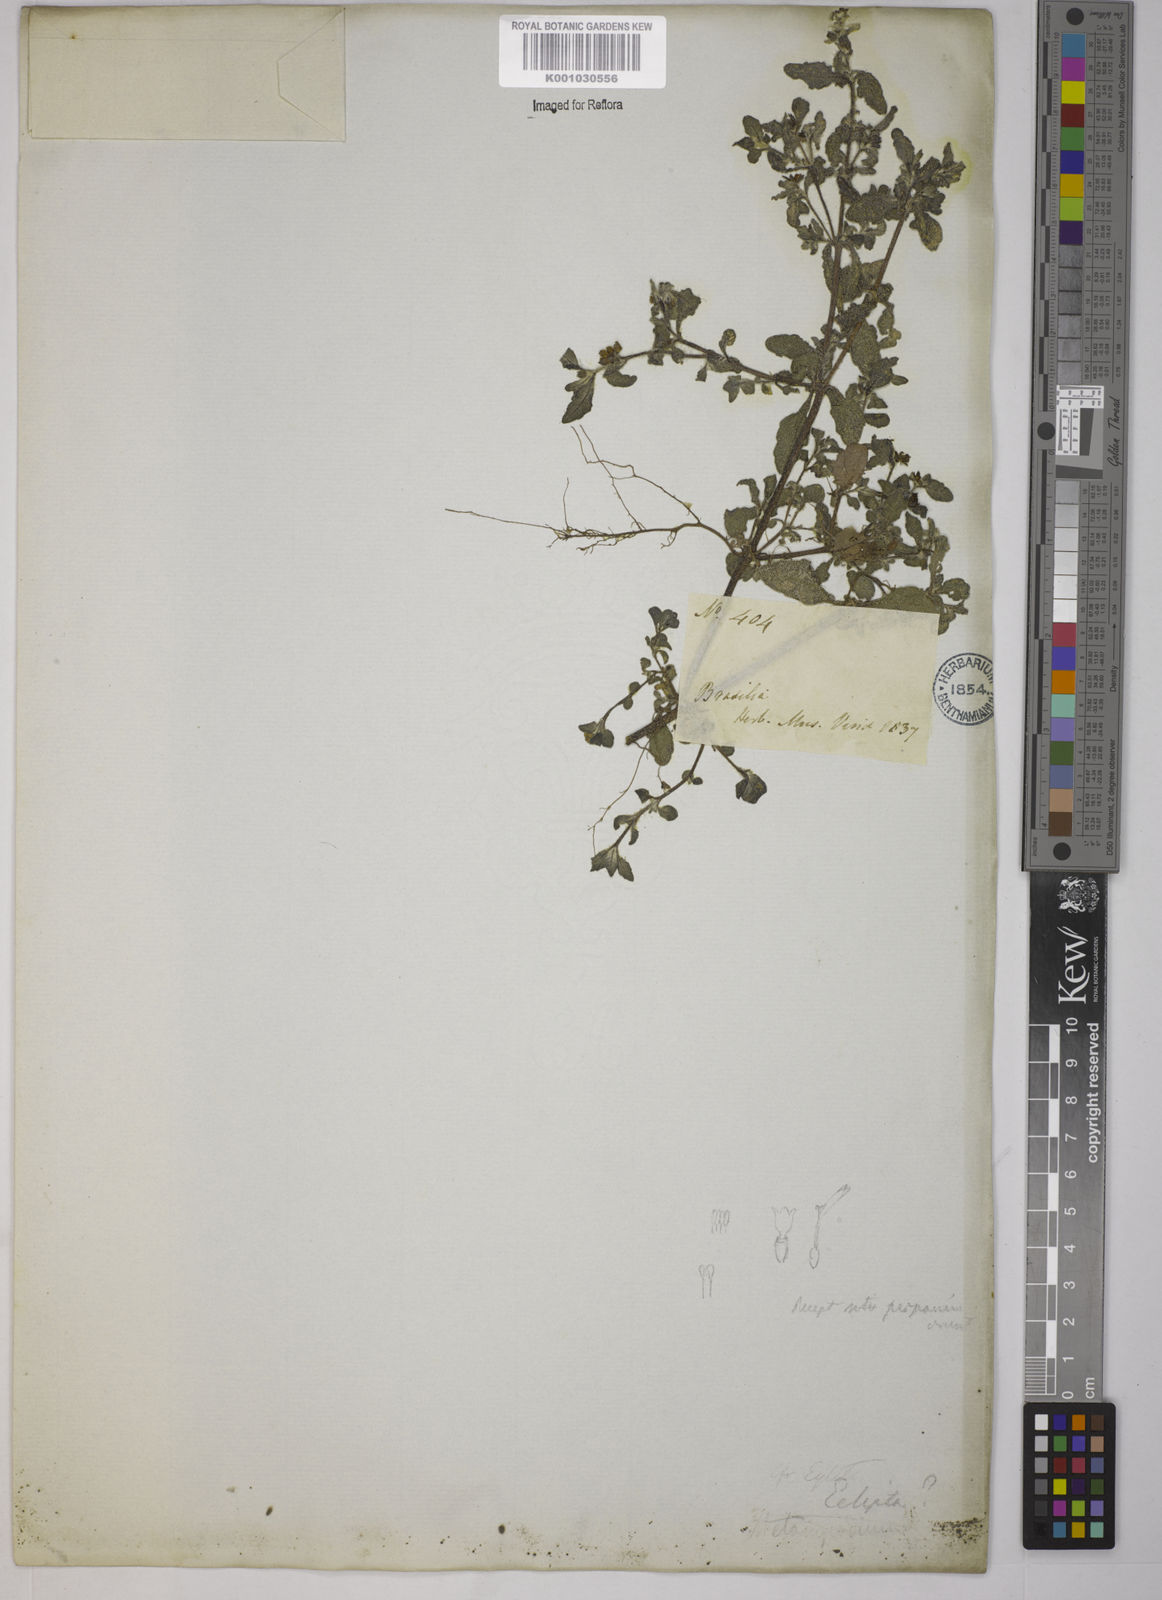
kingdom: Plantae
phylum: Tracheophyta
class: Magnoliopsida
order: Asterales
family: Asteraceae
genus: Eclipta
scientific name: Eclipta
